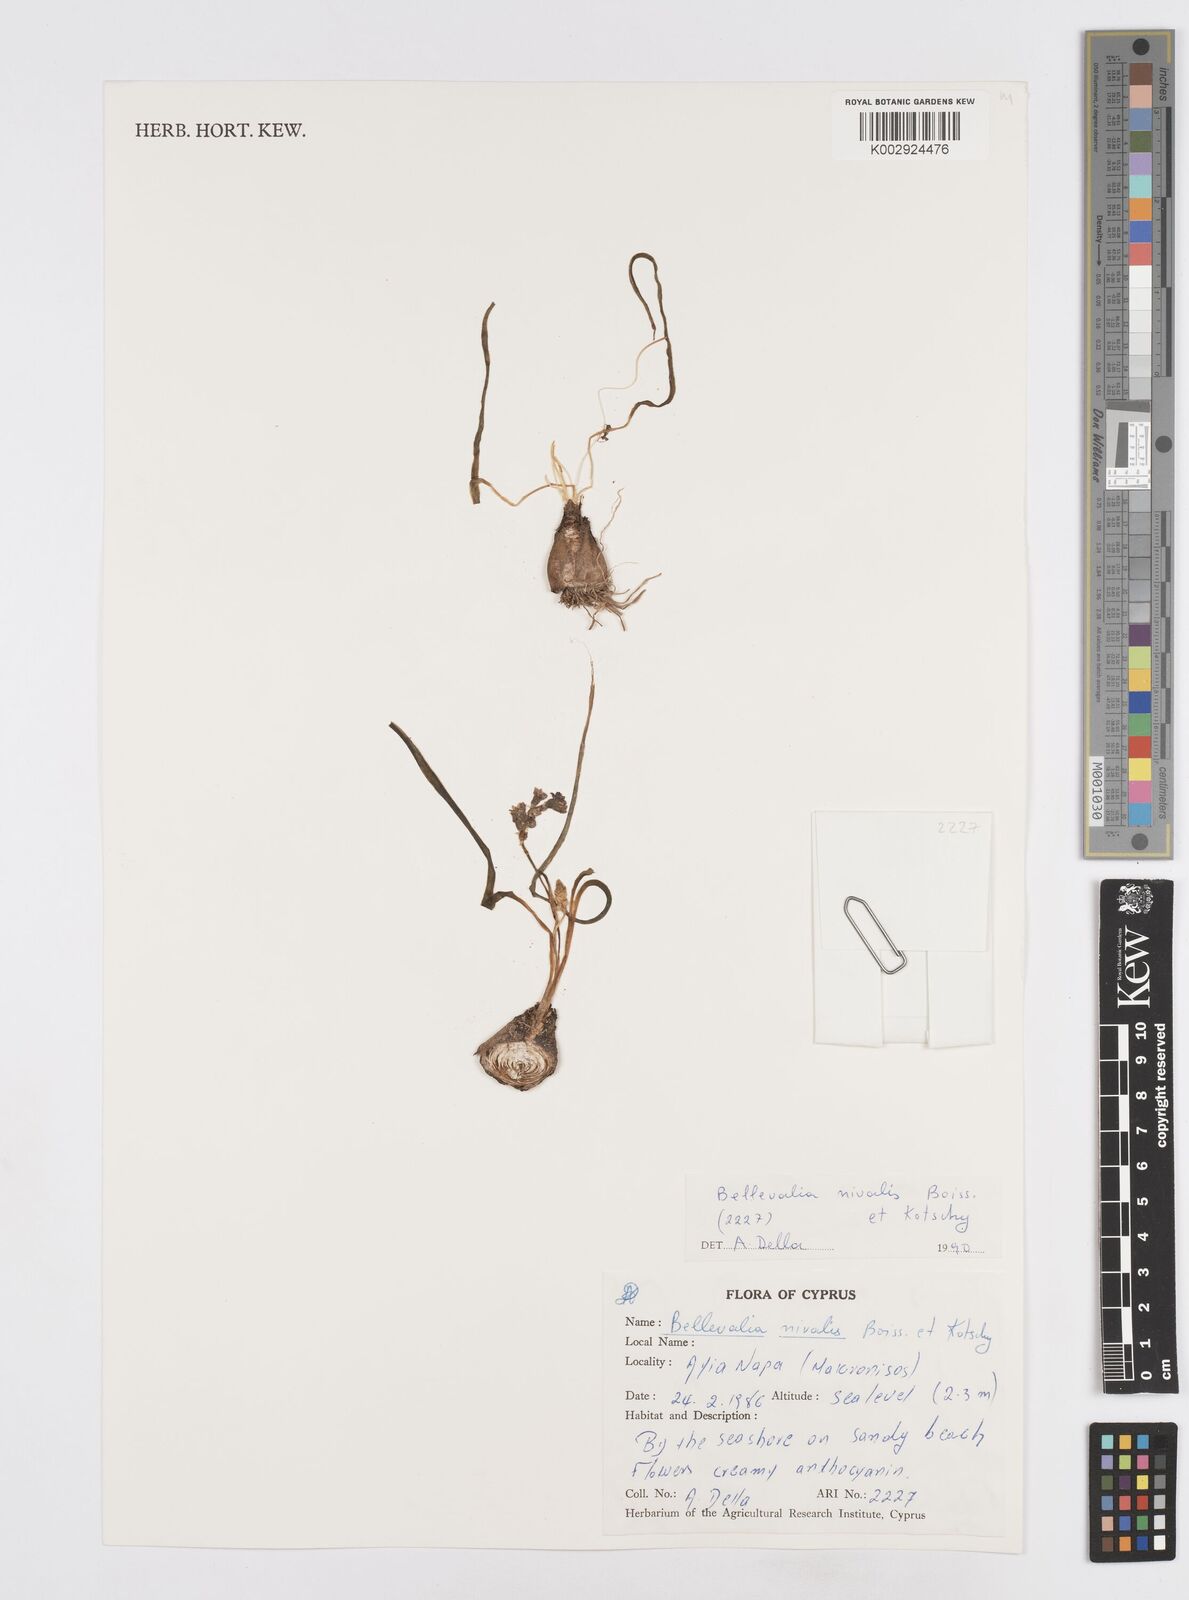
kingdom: Plantae
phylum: Tracheophyta
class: Liliopsida
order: Asparagales
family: Asparagaceae
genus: Bellevalia
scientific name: Bellevalia nivalis
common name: Snow bellevalia
